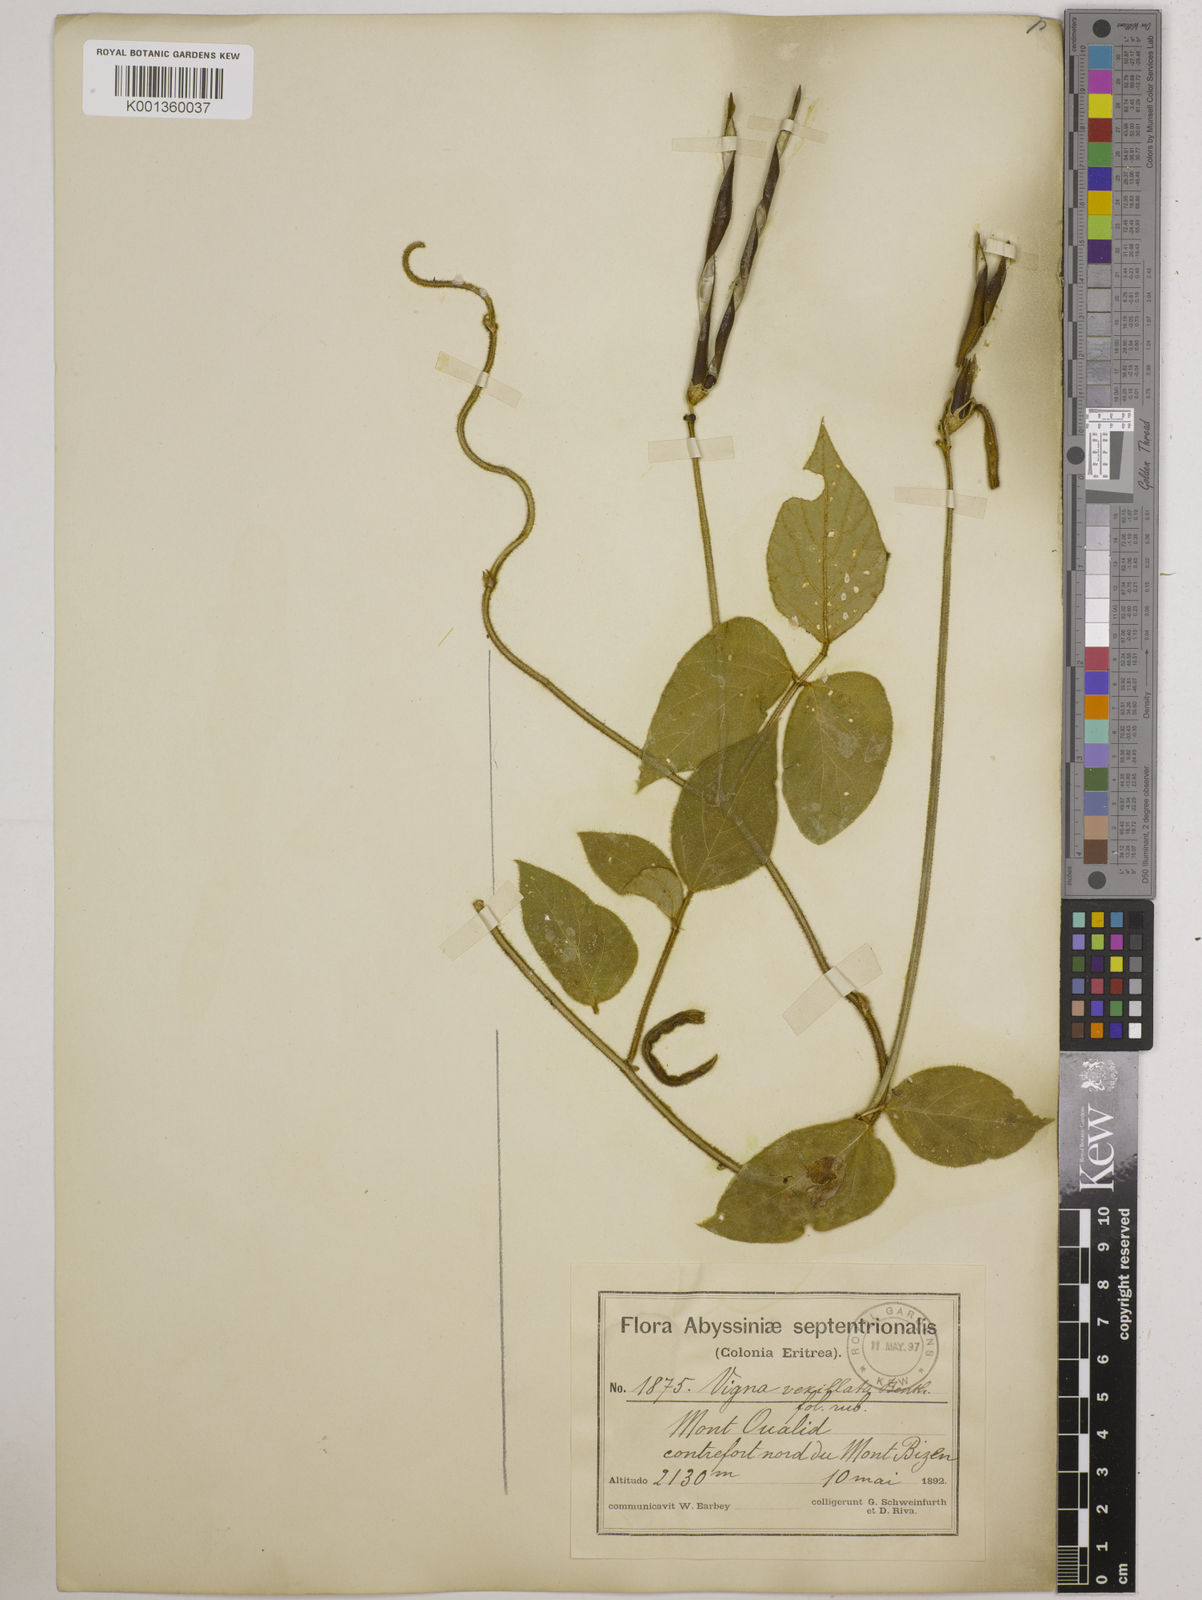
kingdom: Plantae
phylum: Tracheophyta
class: Magnoliopsida
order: Fabales
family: Fabaceae
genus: Vigna
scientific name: Vigna vexillata
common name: Zombi pea
